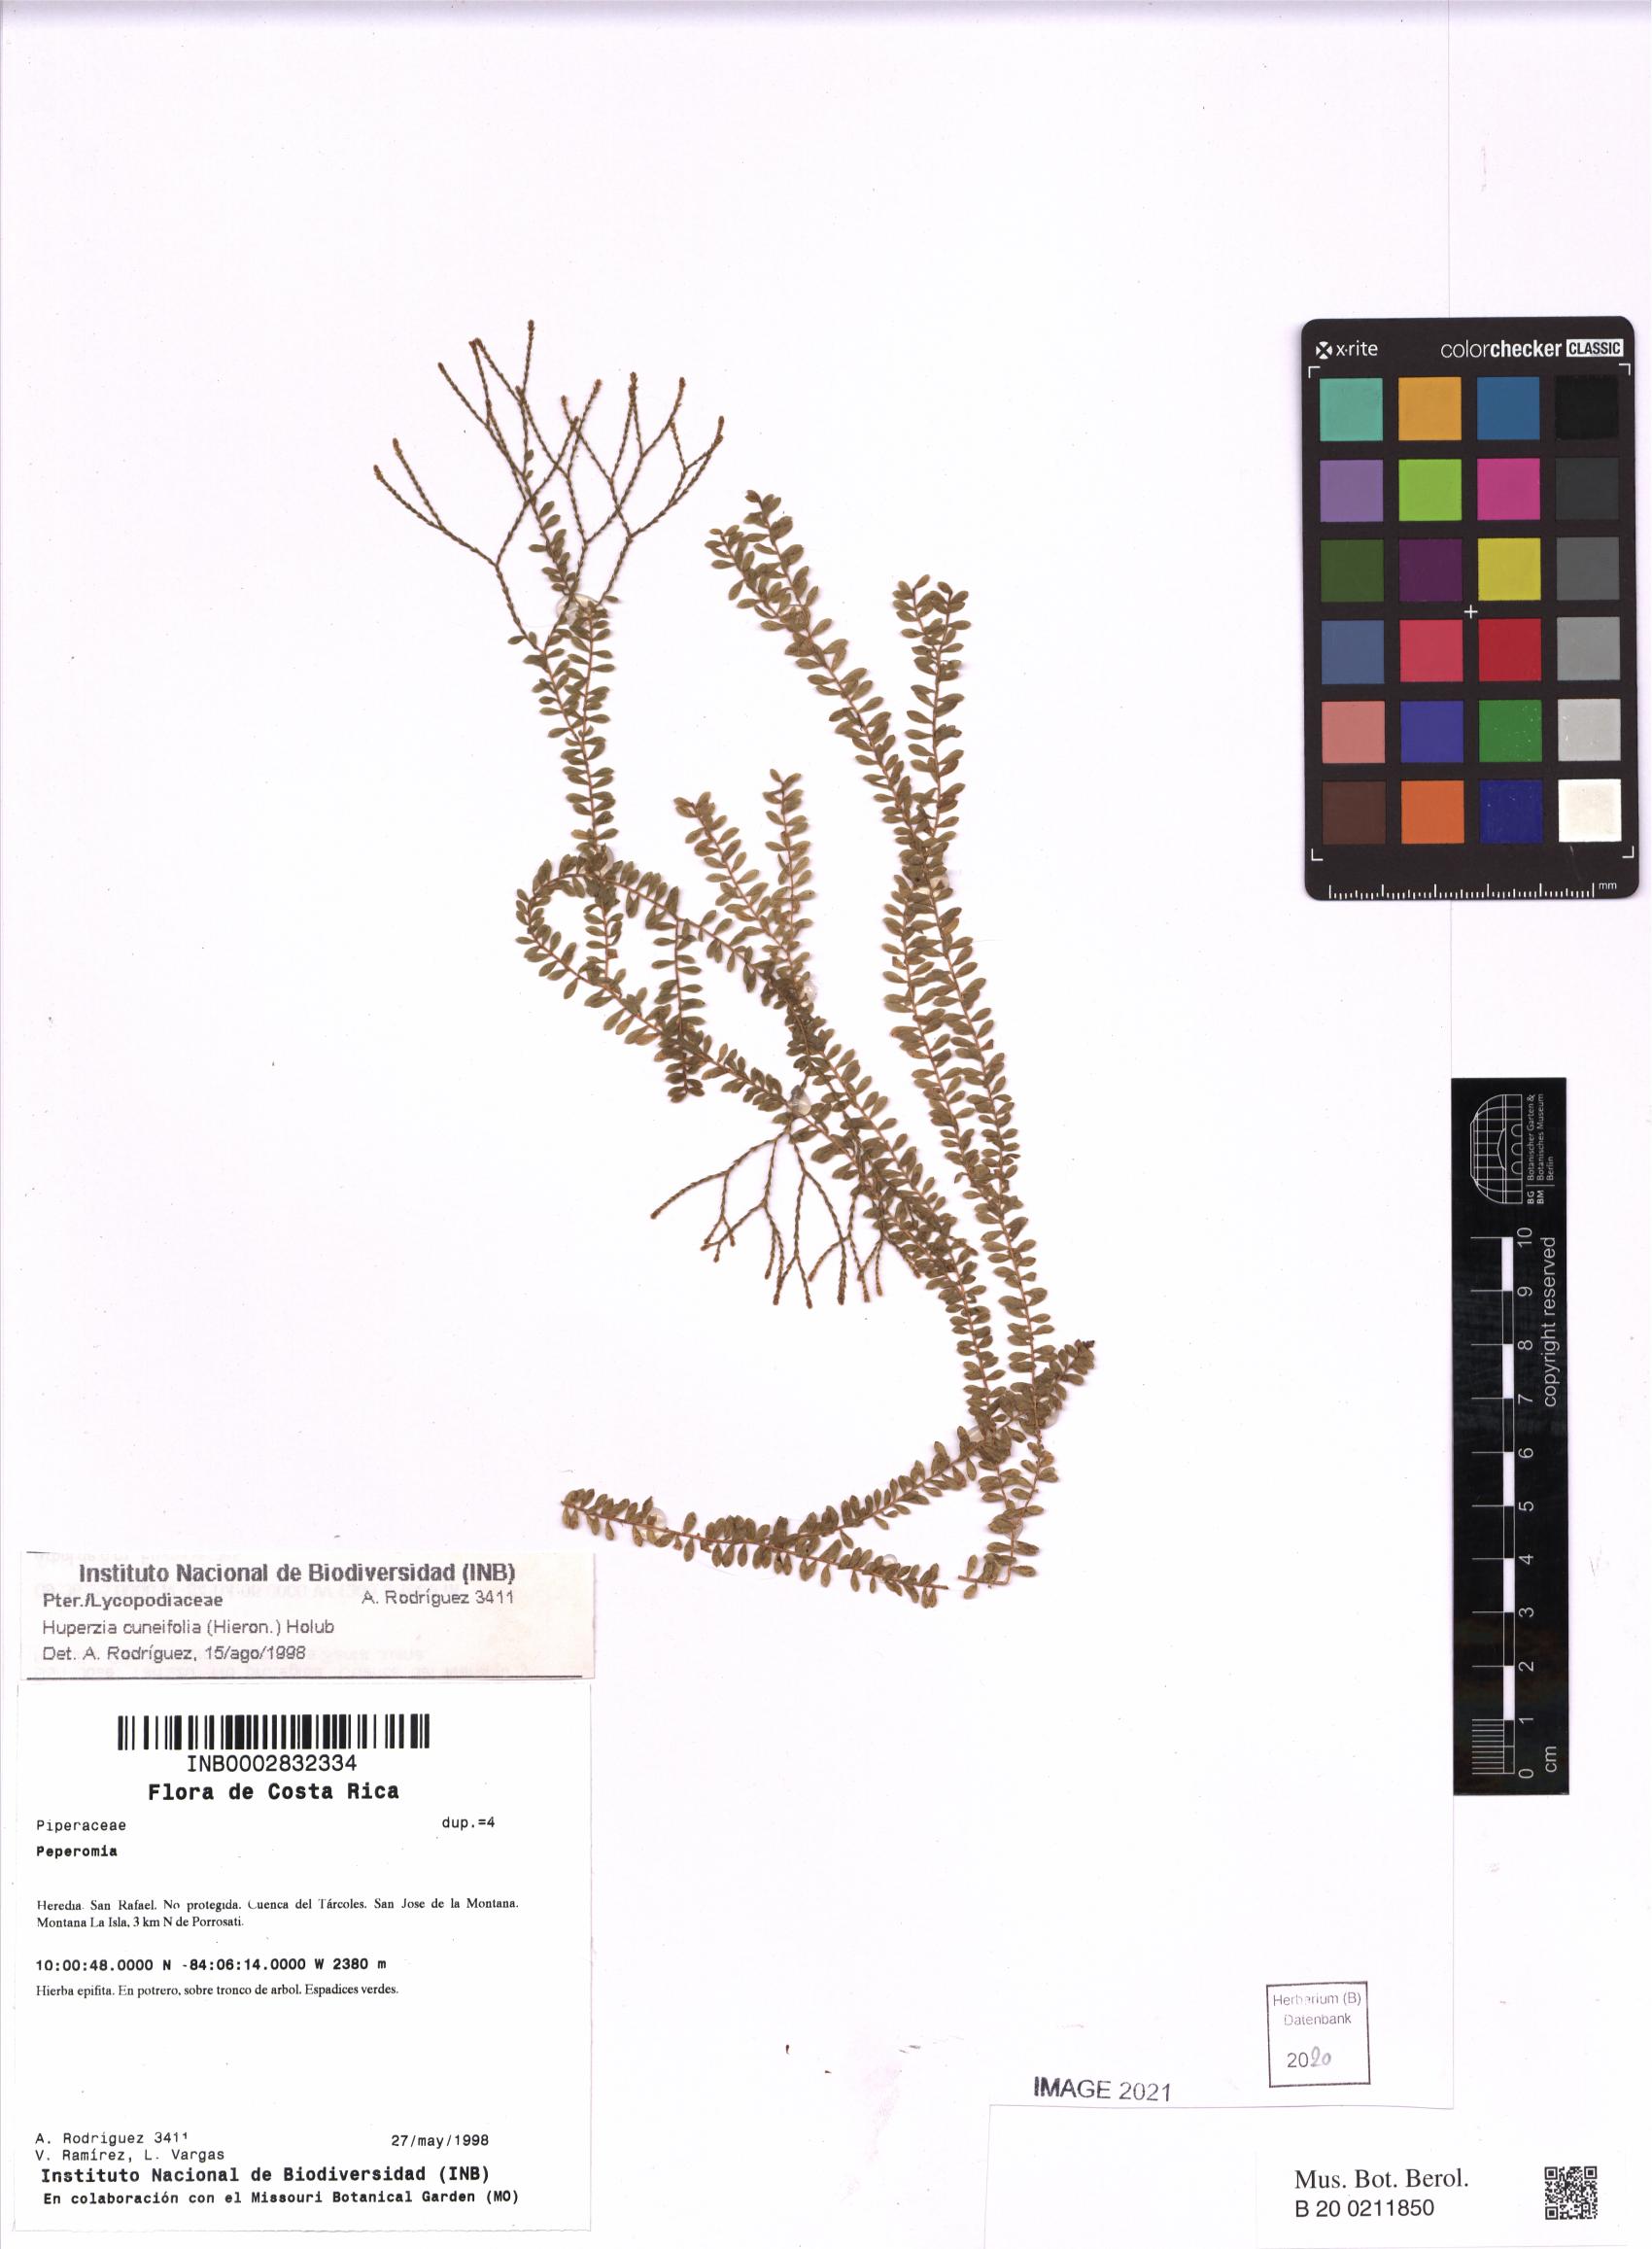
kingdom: Plantae
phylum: Tracheophyta
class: Lycopodiopsida
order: Lycopodiales
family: Lycopodiaceae
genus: Phlegmariurus
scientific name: Phlegmariurus cuneifolius
